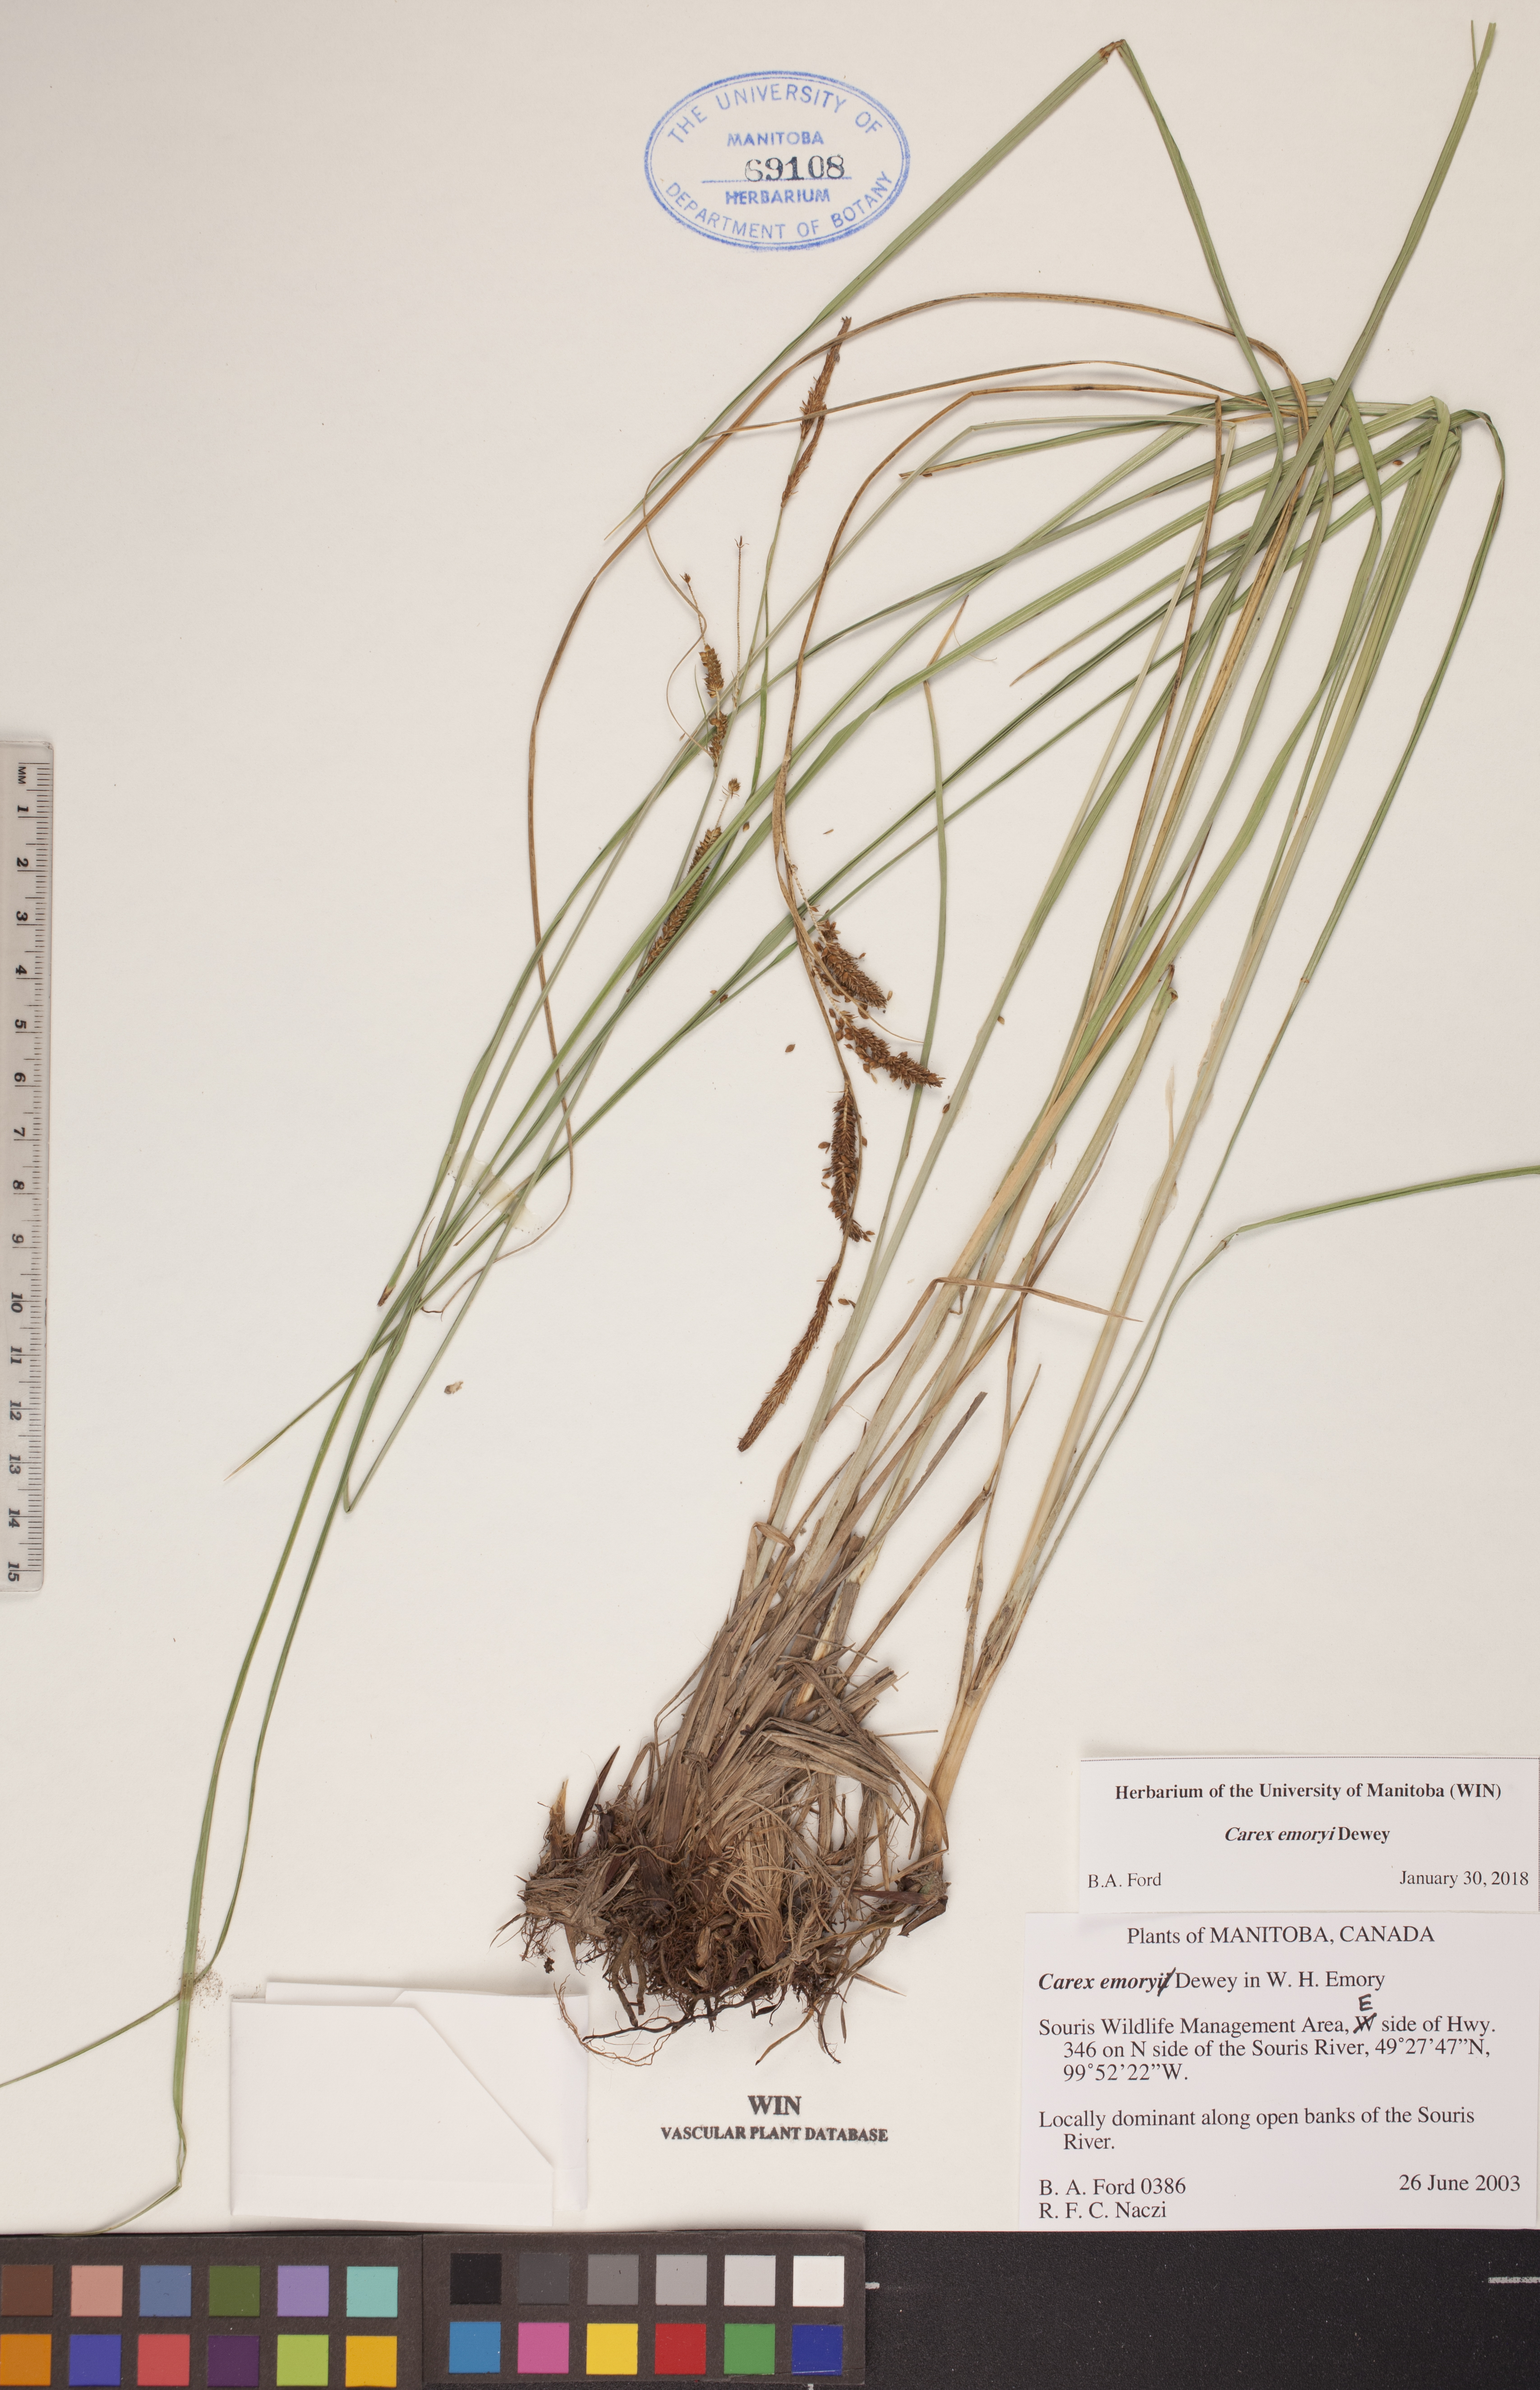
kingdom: Plantae
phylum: Tracheophyta
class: Liliopsida
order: Poales
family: Cyperaceae
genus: Carex
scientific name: Carex emoryi
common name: Emory's sedge
